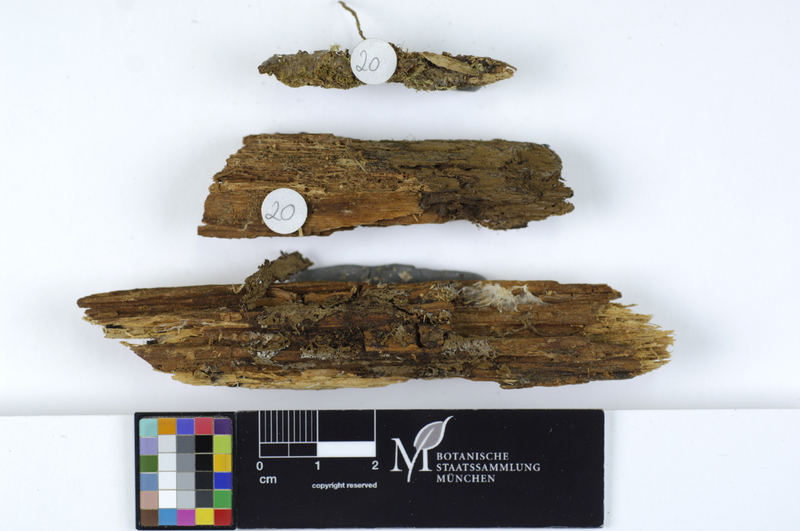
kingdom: Fungi
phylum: Basidiomycota
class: Agaricomycetes
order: Boletales
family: Coniophoraceae
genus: Coniophora
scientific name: Coniophora olivacea
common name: Olive duster
